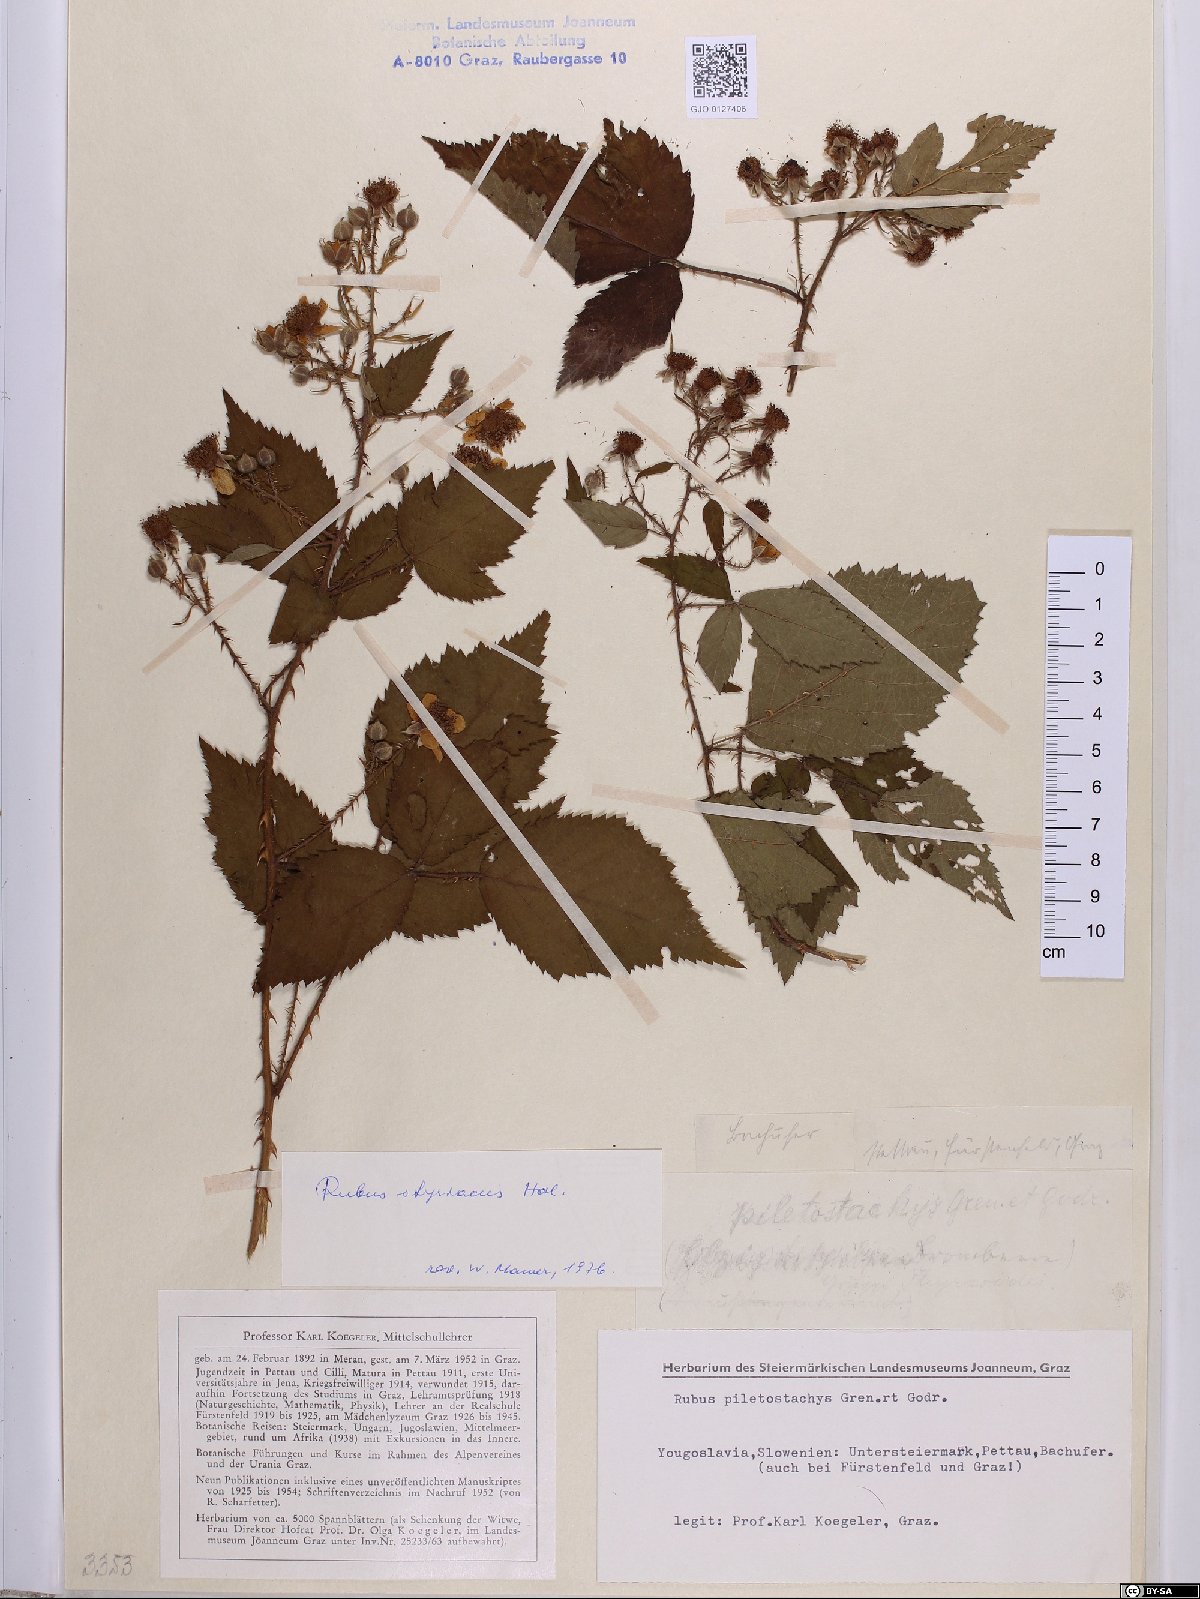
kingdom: Plantae
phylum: Tracheophyta
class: Magnoliopsida
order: Rosales
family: Rosaceae
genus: Rubus
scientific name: Rubus styriacus
